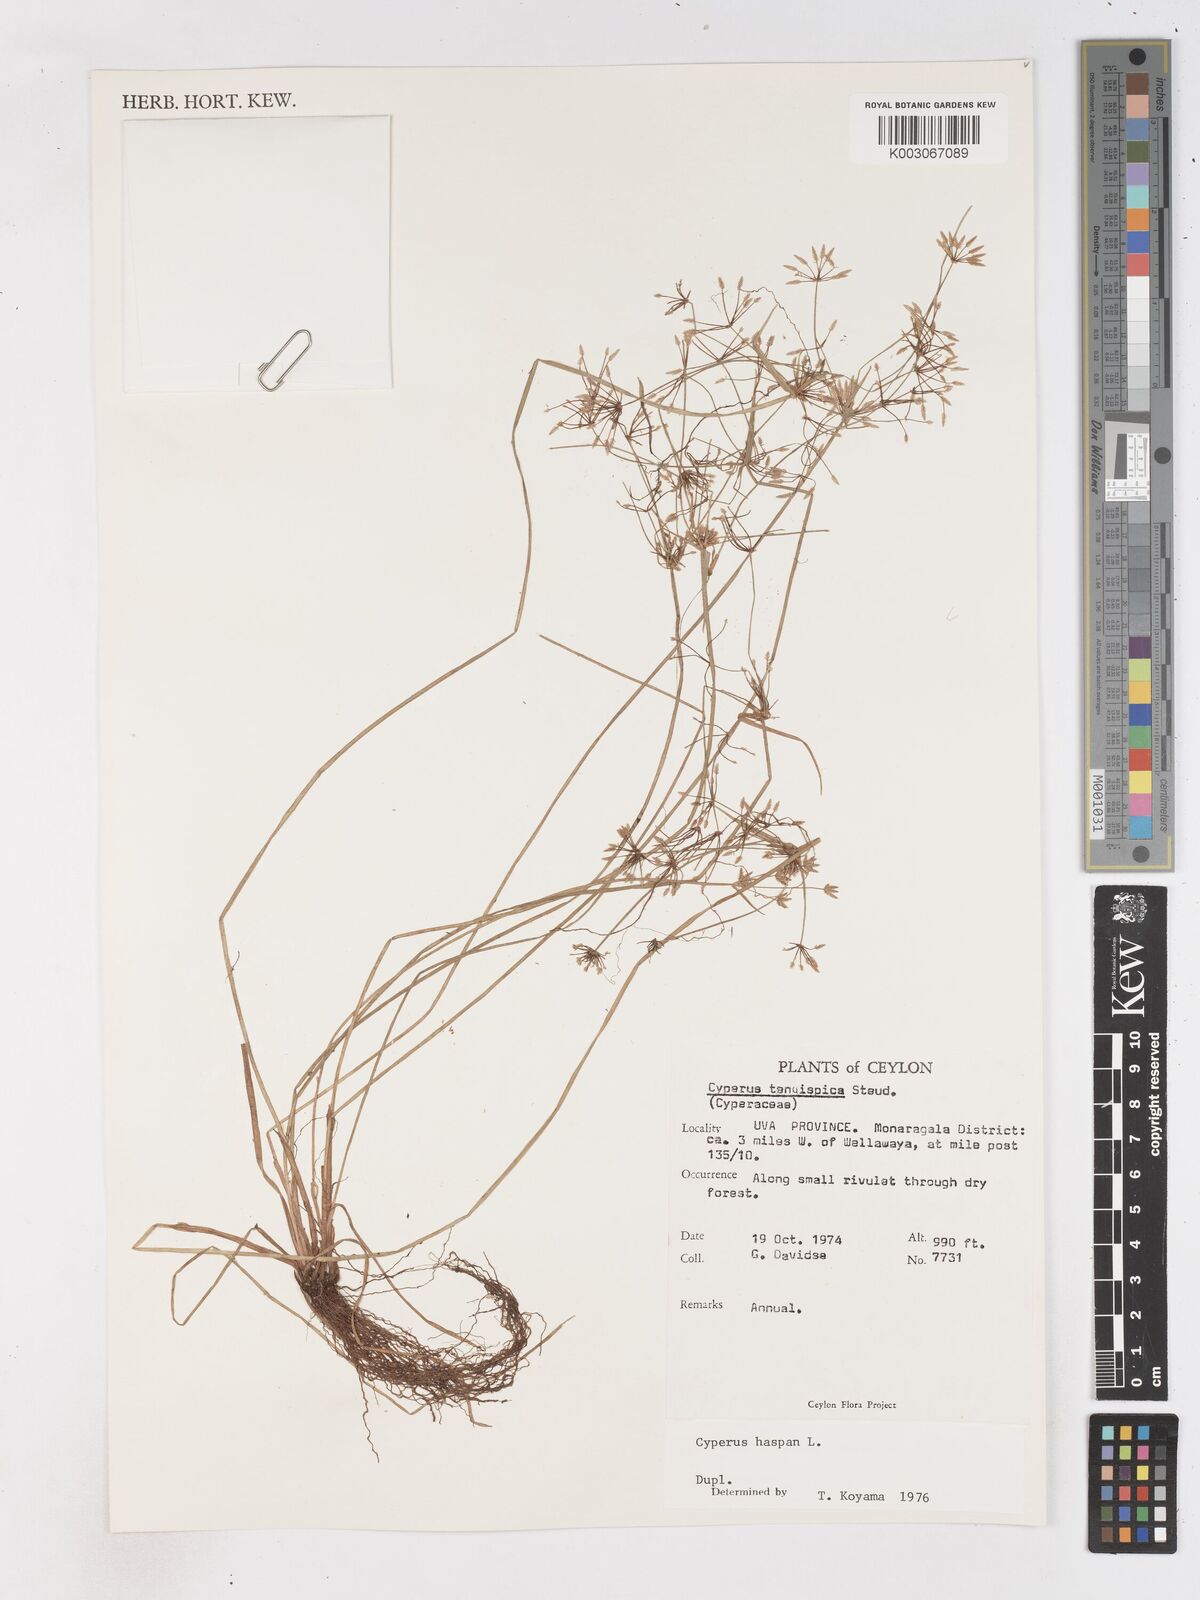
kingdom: Plantae
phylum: Tracheophyta
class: Liliopsida
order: Poales
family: Cyperaceae
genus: Cyperus
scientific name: Cyperus haspan
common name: Haspan flatsedge
